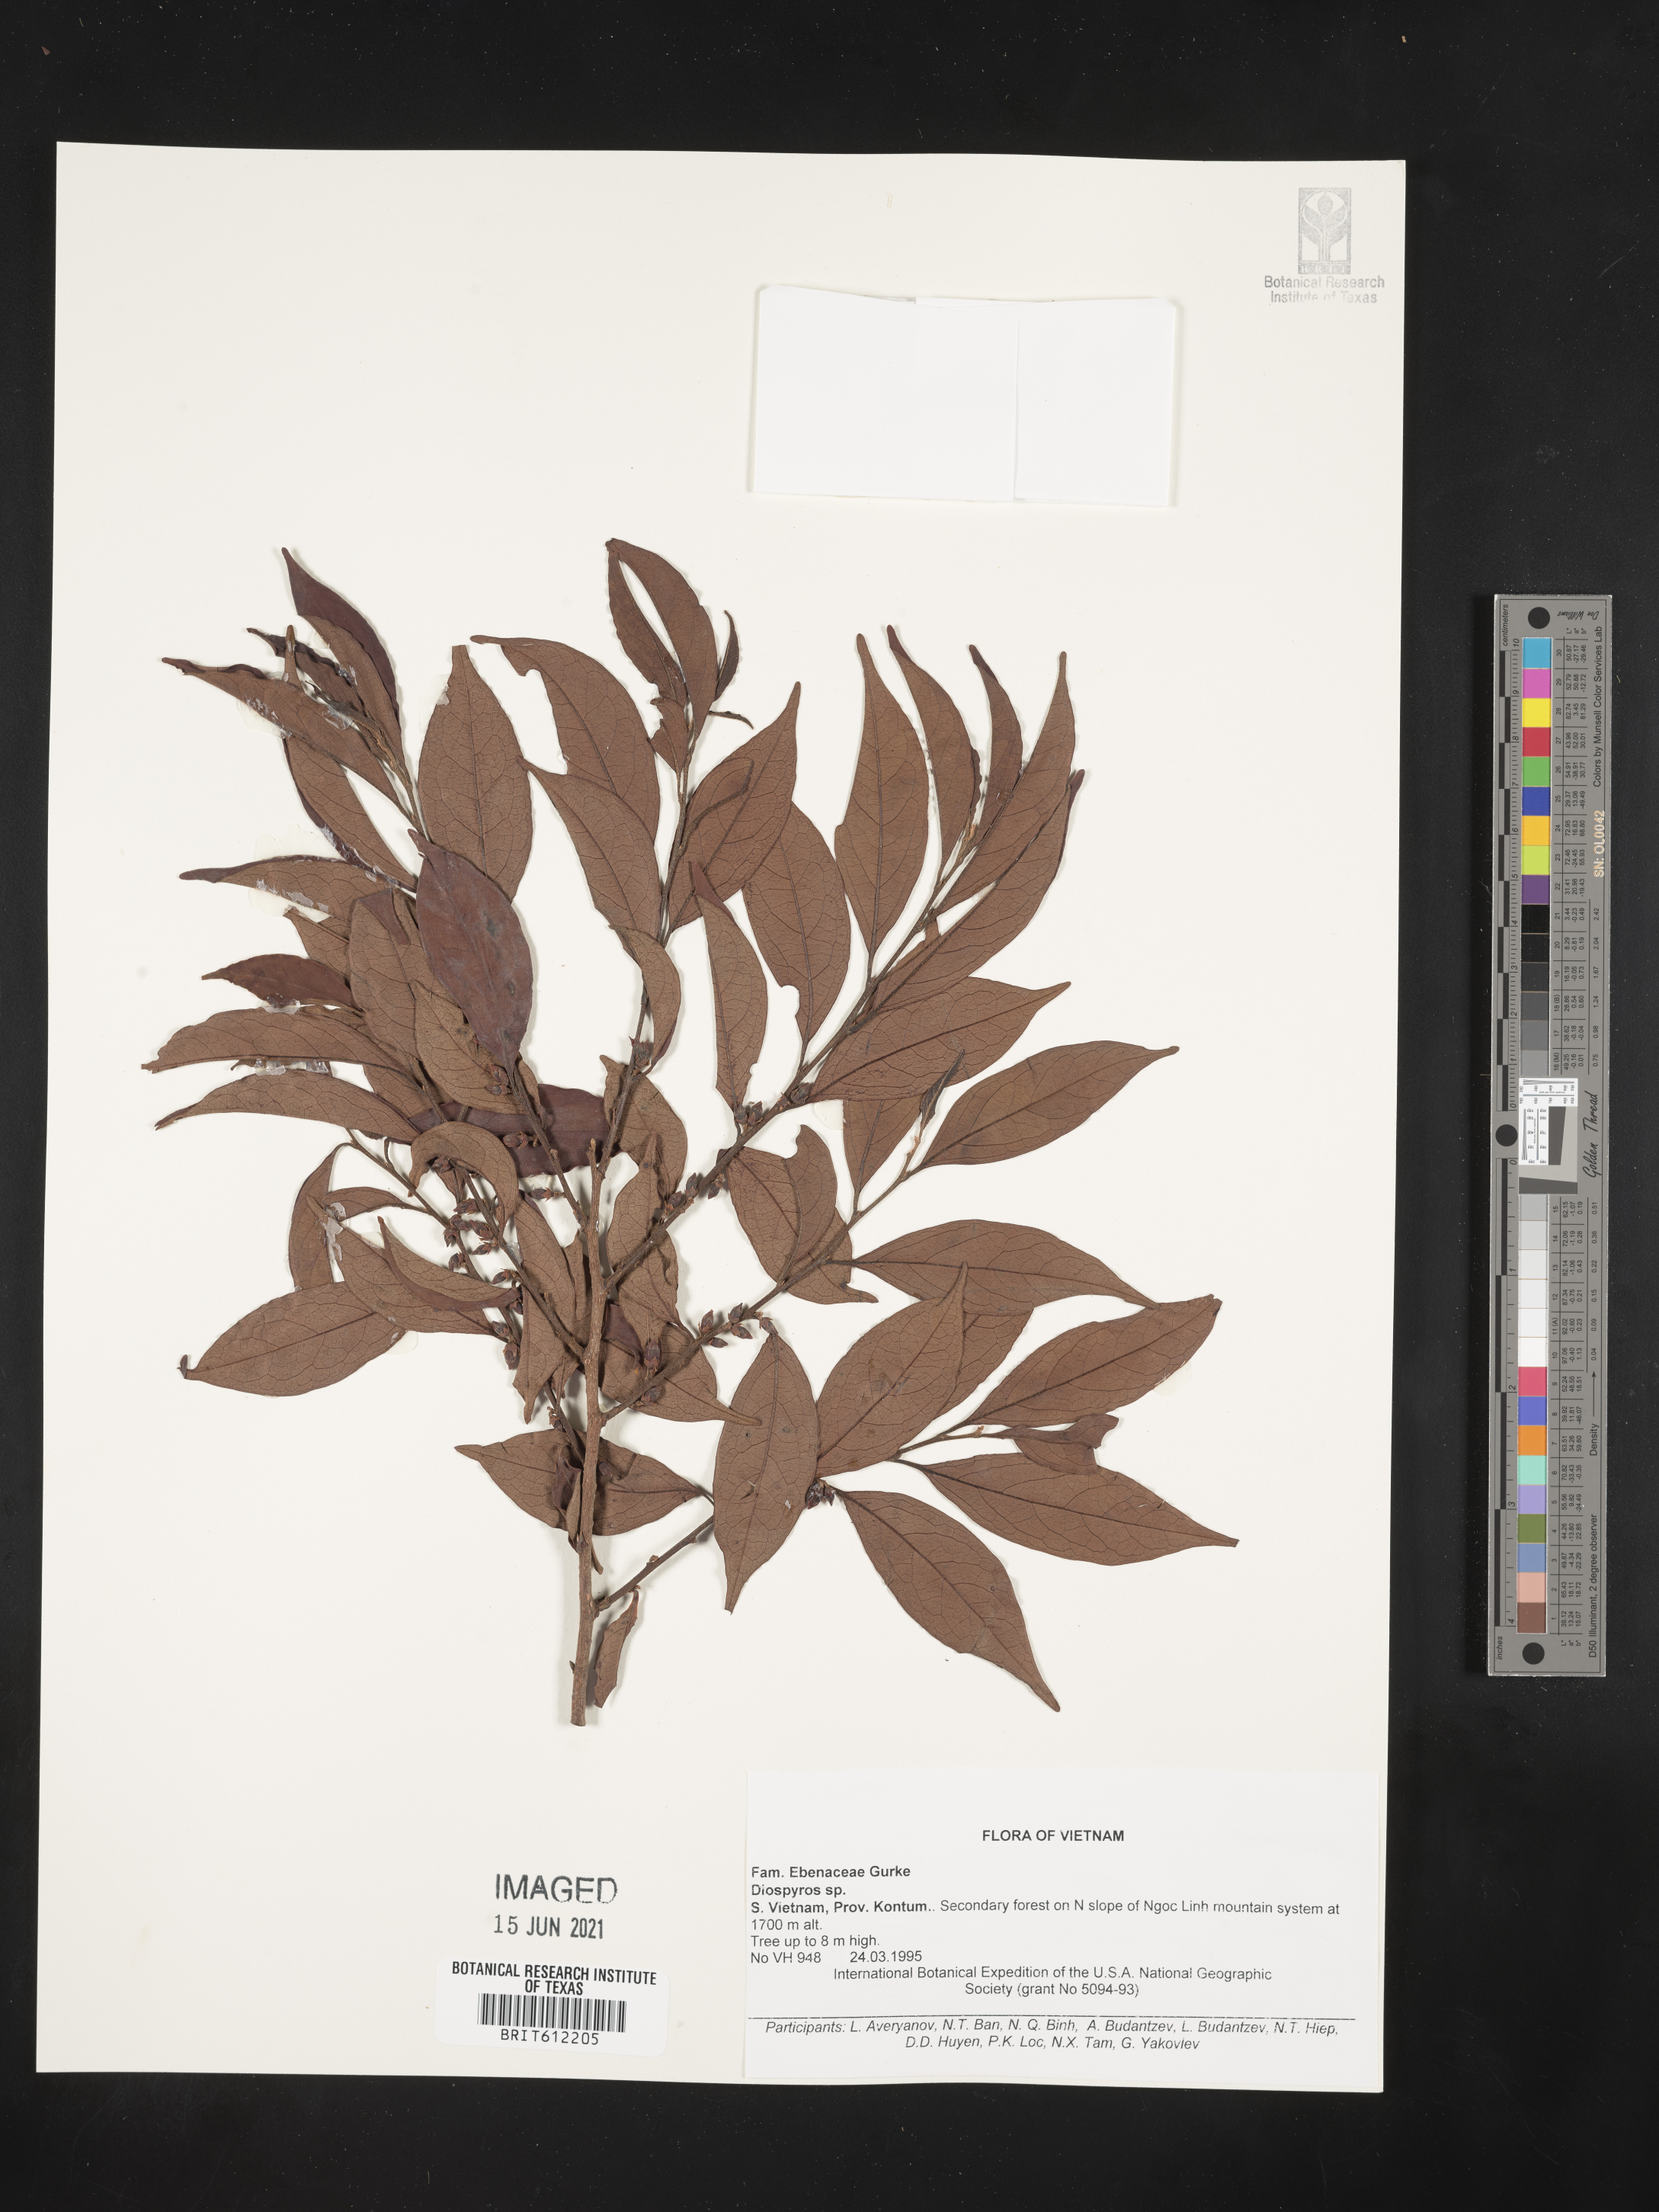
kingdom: Plantae
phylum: Tracheophyta
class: Magnoliopsida
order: Ericales
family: Ebenaceae
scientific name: Ebenaceae
